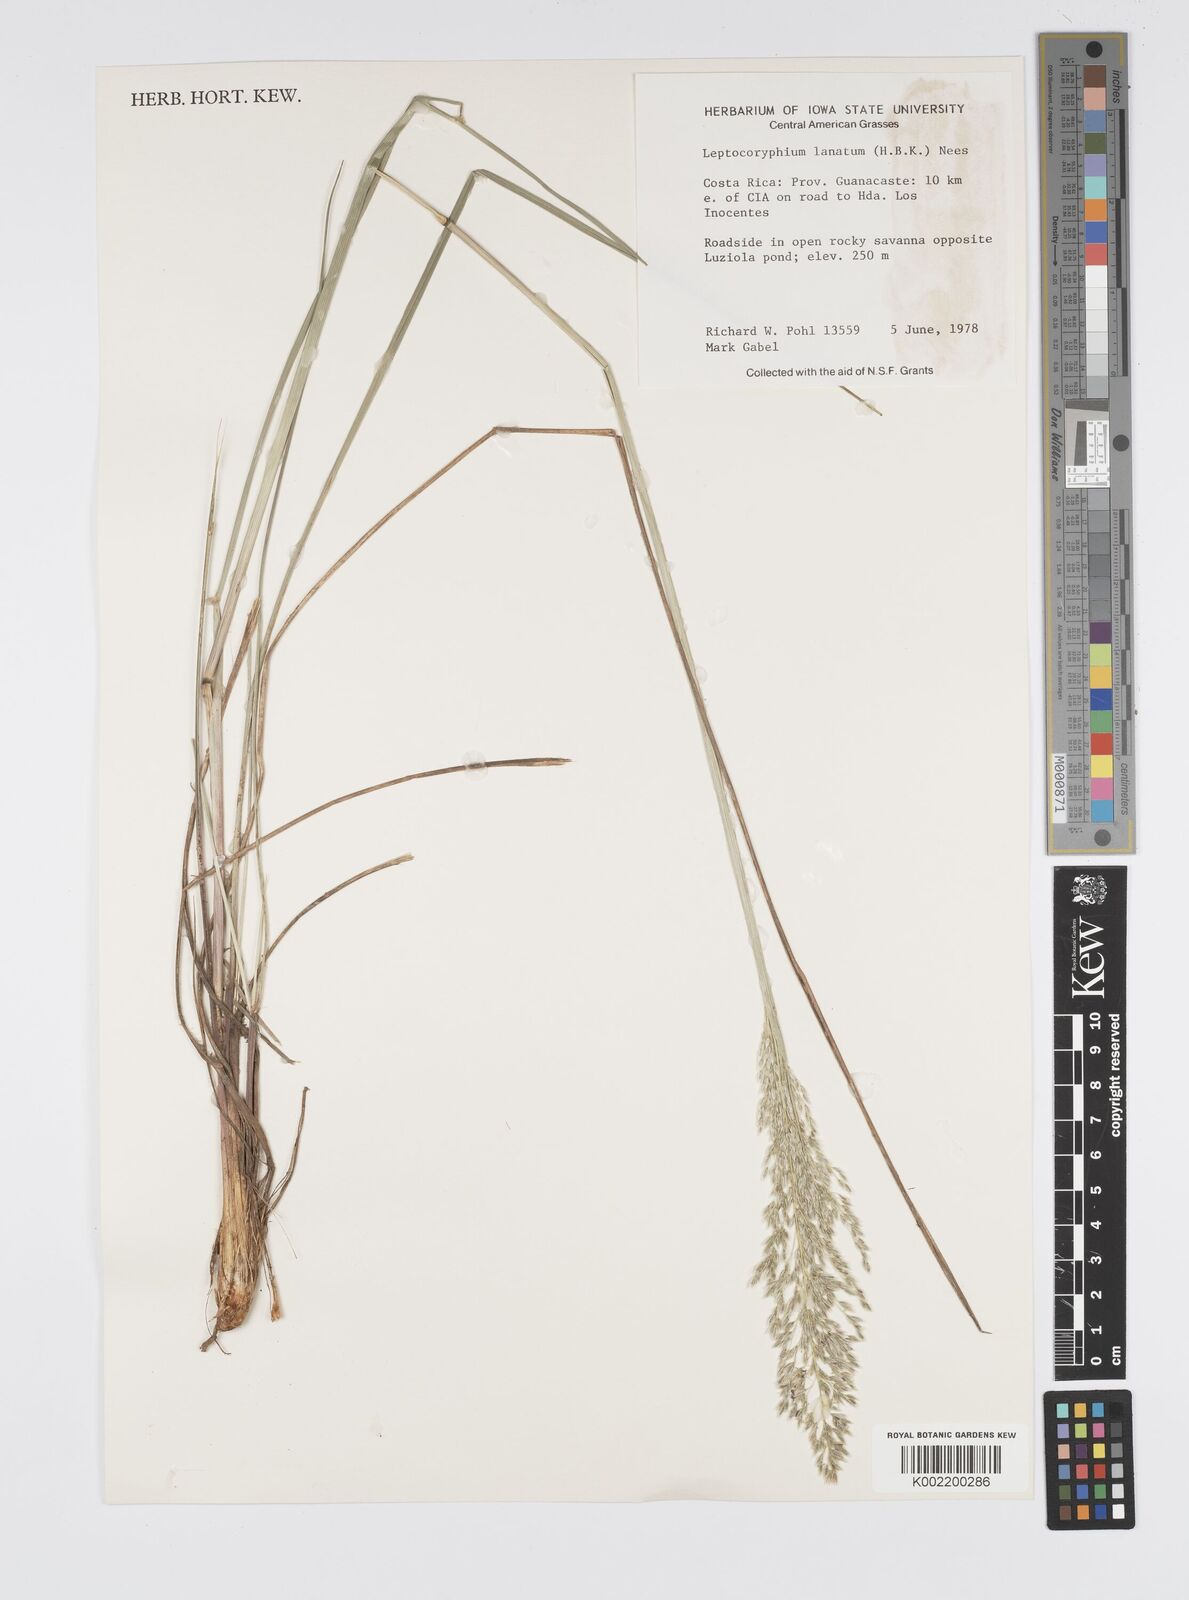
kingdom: Plantae
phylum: Tracheophyta
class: Liliopsida
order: Poales
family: Poaceae
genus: Anthenantia
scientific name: Anthenantia lanata
